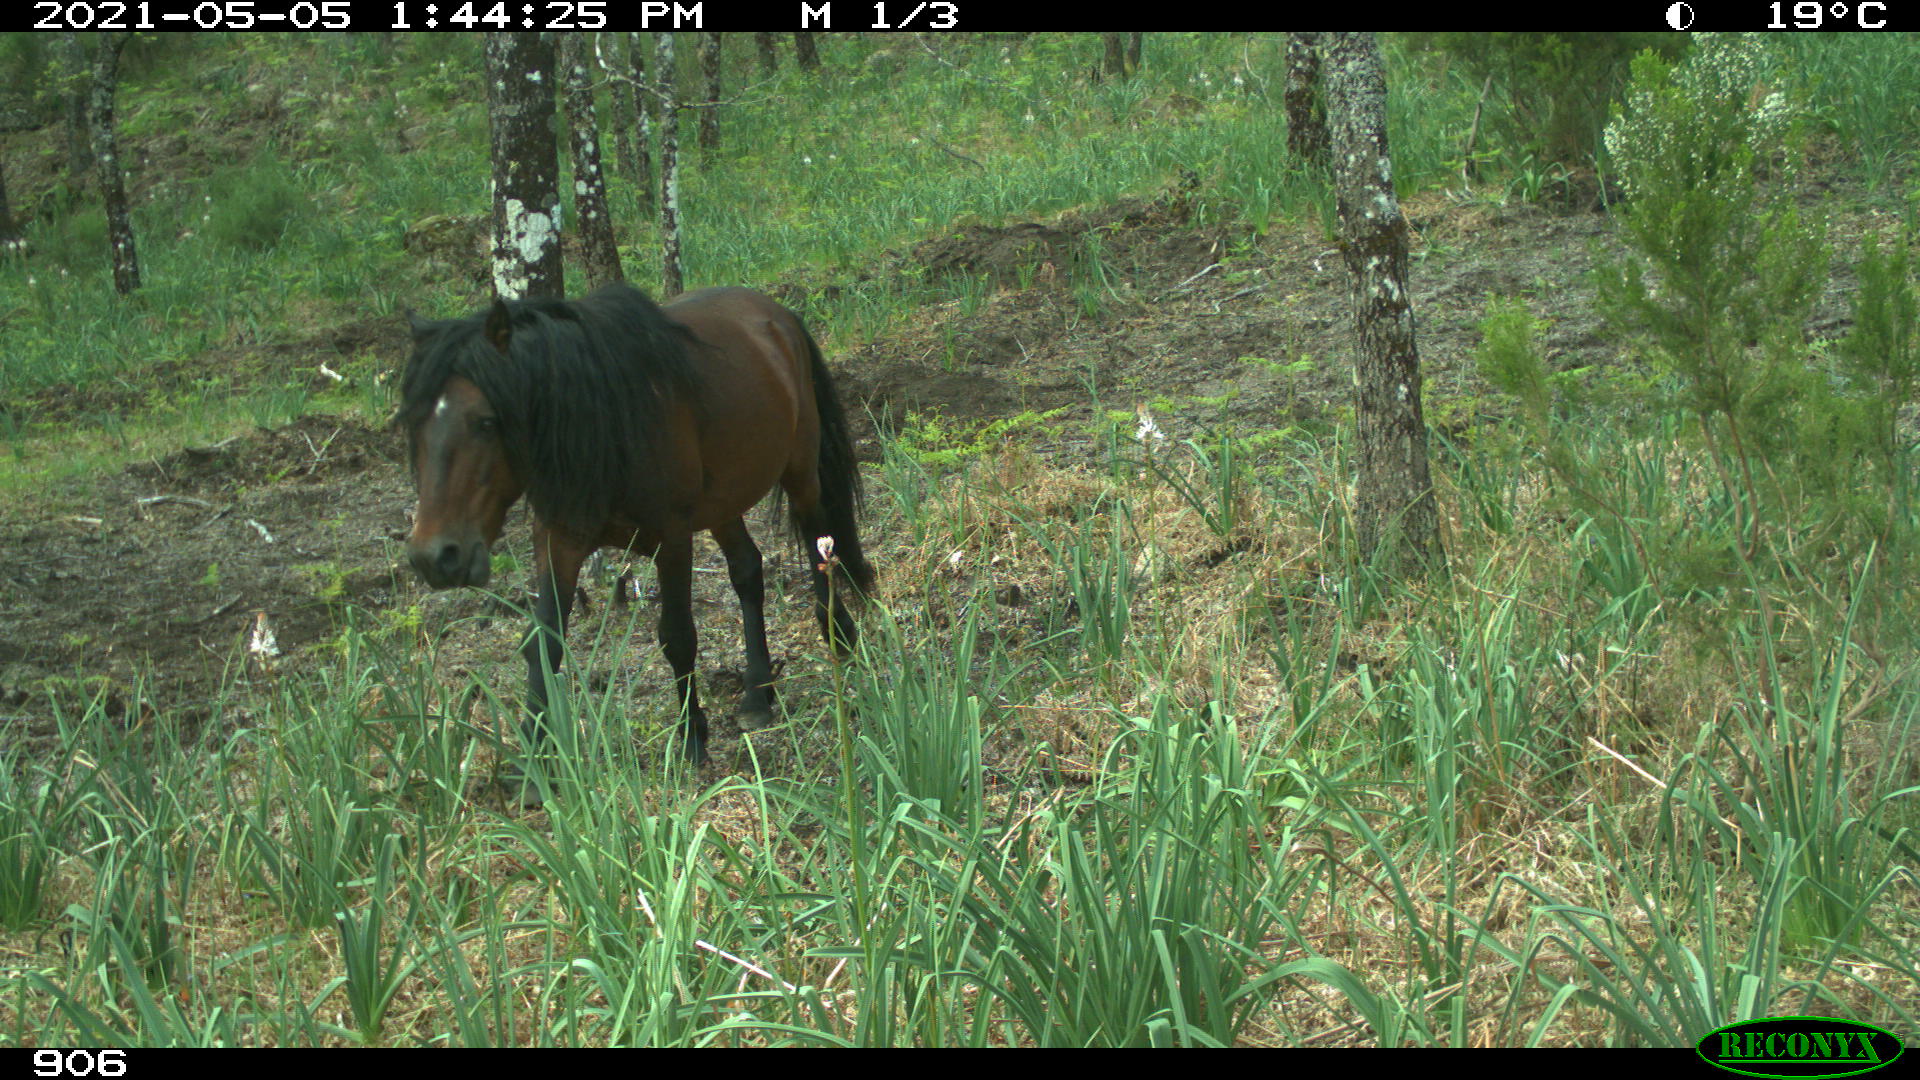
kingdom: Animalia
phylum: Chordata
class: Mammalia
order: Perissodactyla
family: Equidae
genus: Equus
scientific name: Equus caballus
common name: Horse
